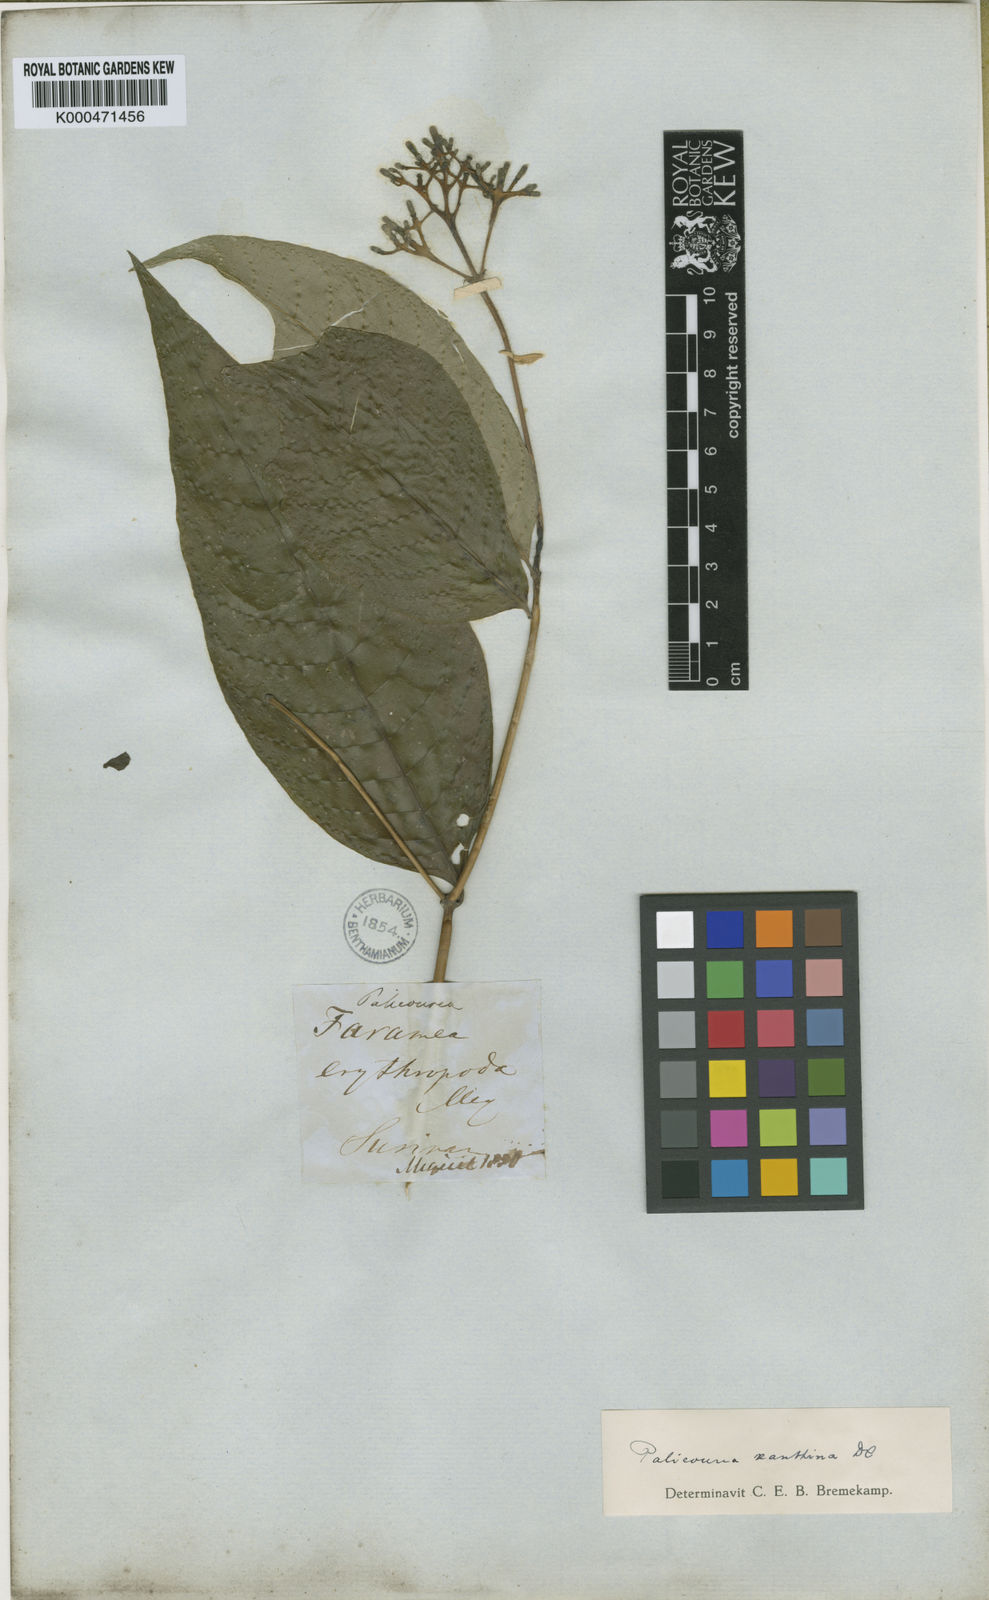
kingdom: Plantae
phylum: Tracheophyta
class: Magnoliopsida
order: Gentianales
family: Rubiaceae
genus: Palicourea
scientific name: Palicourea longiflora
